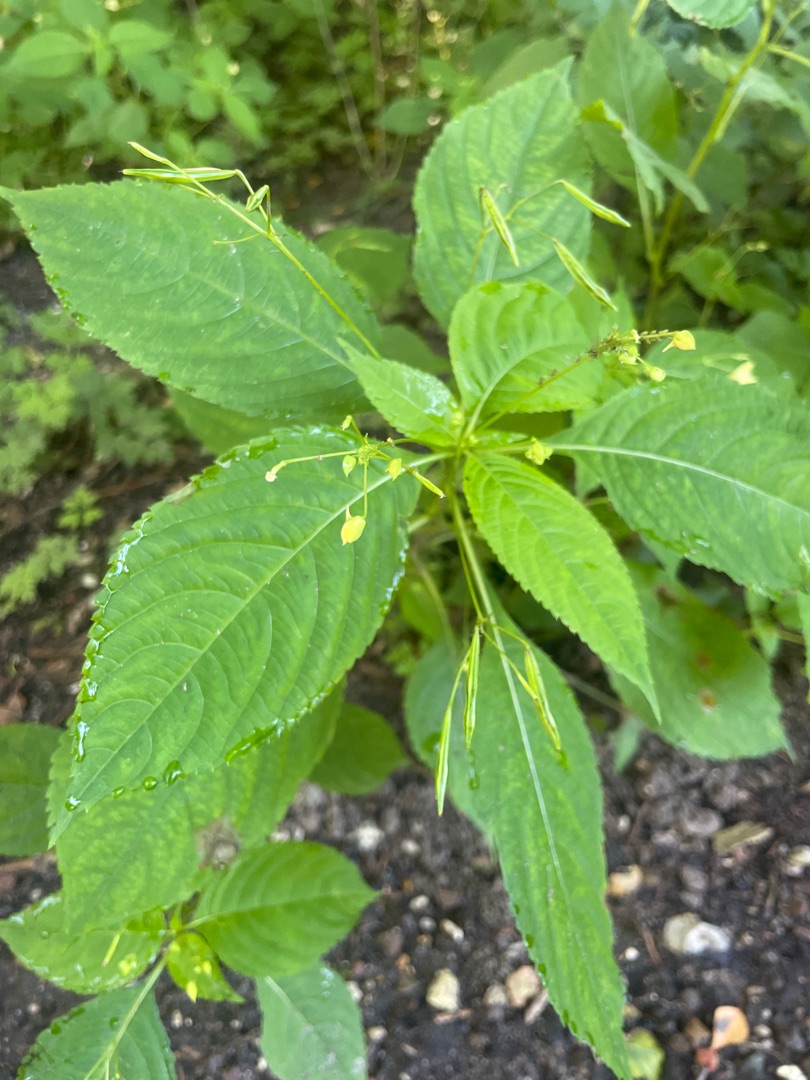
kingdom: Plantae
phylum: Tracheophyta
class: Magnoliopsida
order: Ericales
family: Balsaminaceae
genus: Impatiens
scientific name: Impatiens parviflora
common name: Småblomstret balsamin
